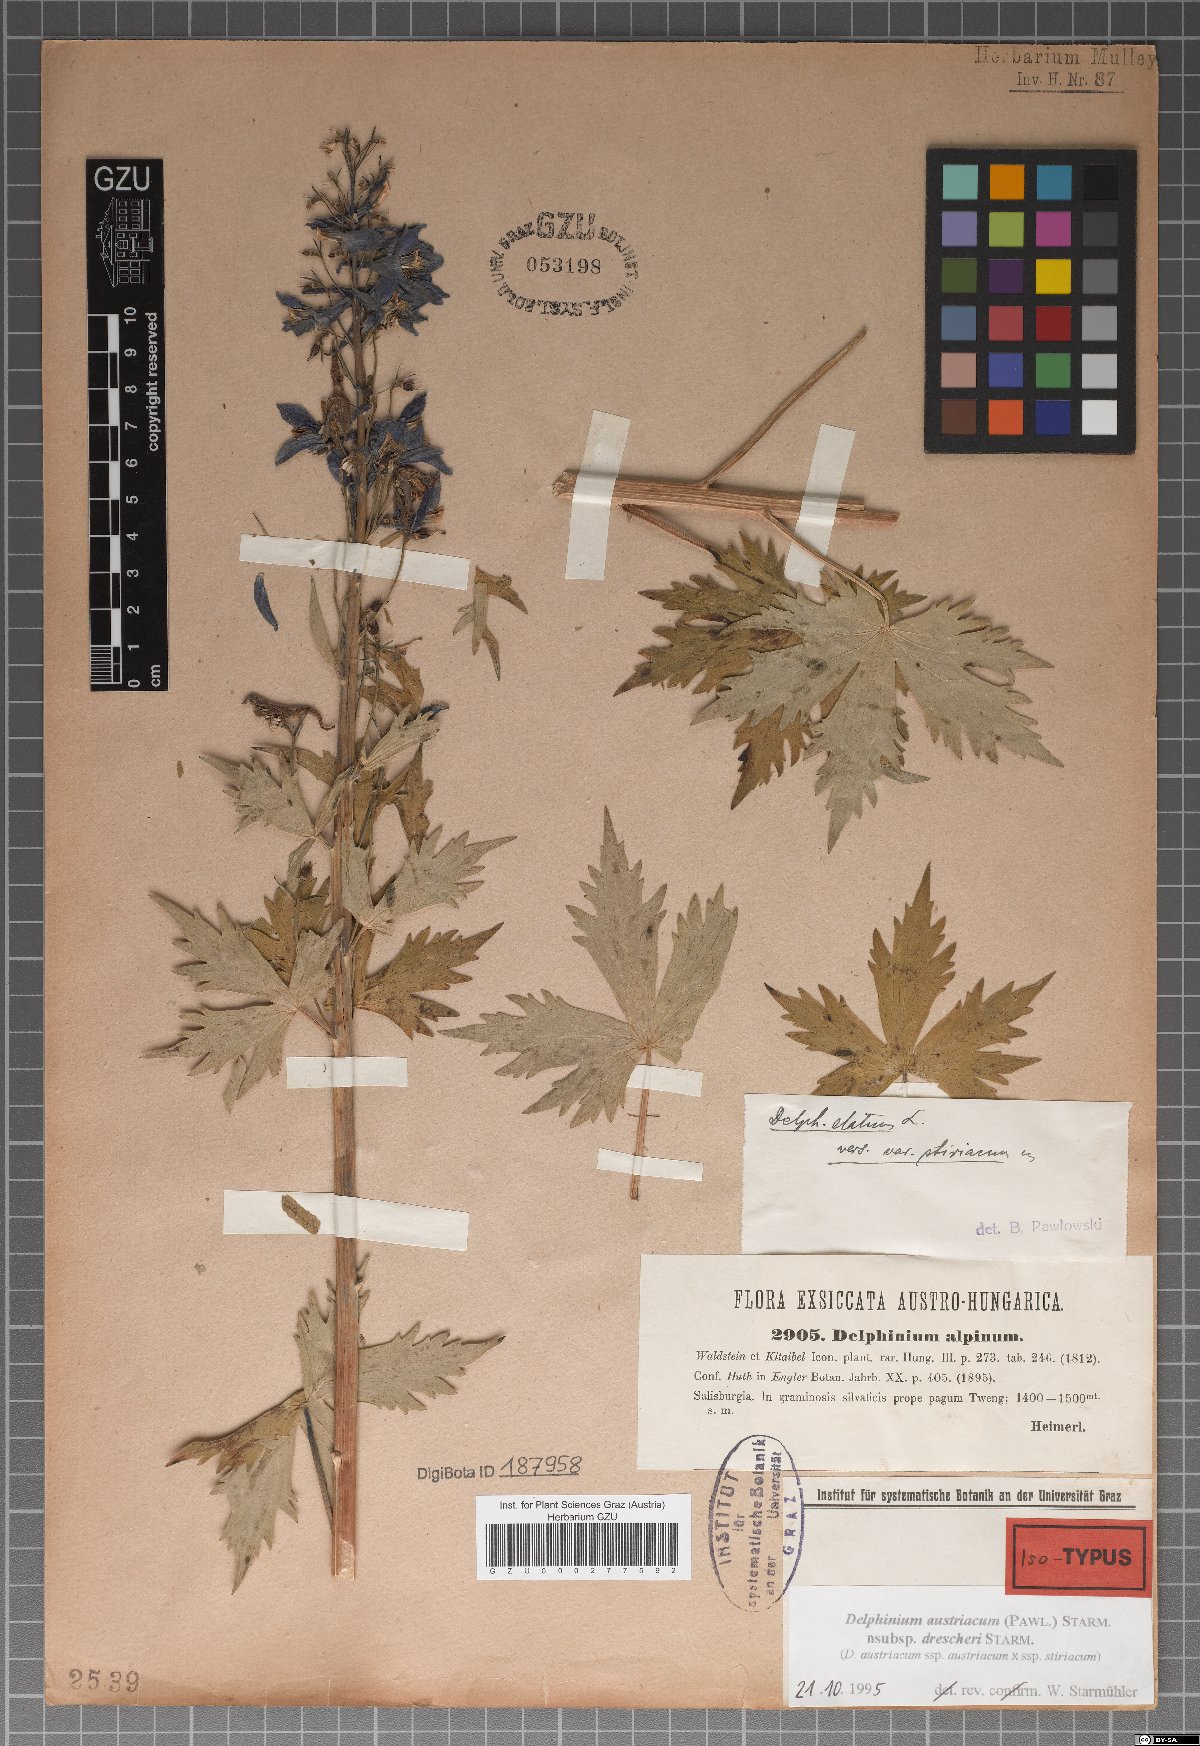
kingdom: Plantae
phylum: Tracheophyta
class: Magnoliopsida
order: Ranunculales
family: Ranunculaceae
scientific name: Ranunculaceae
